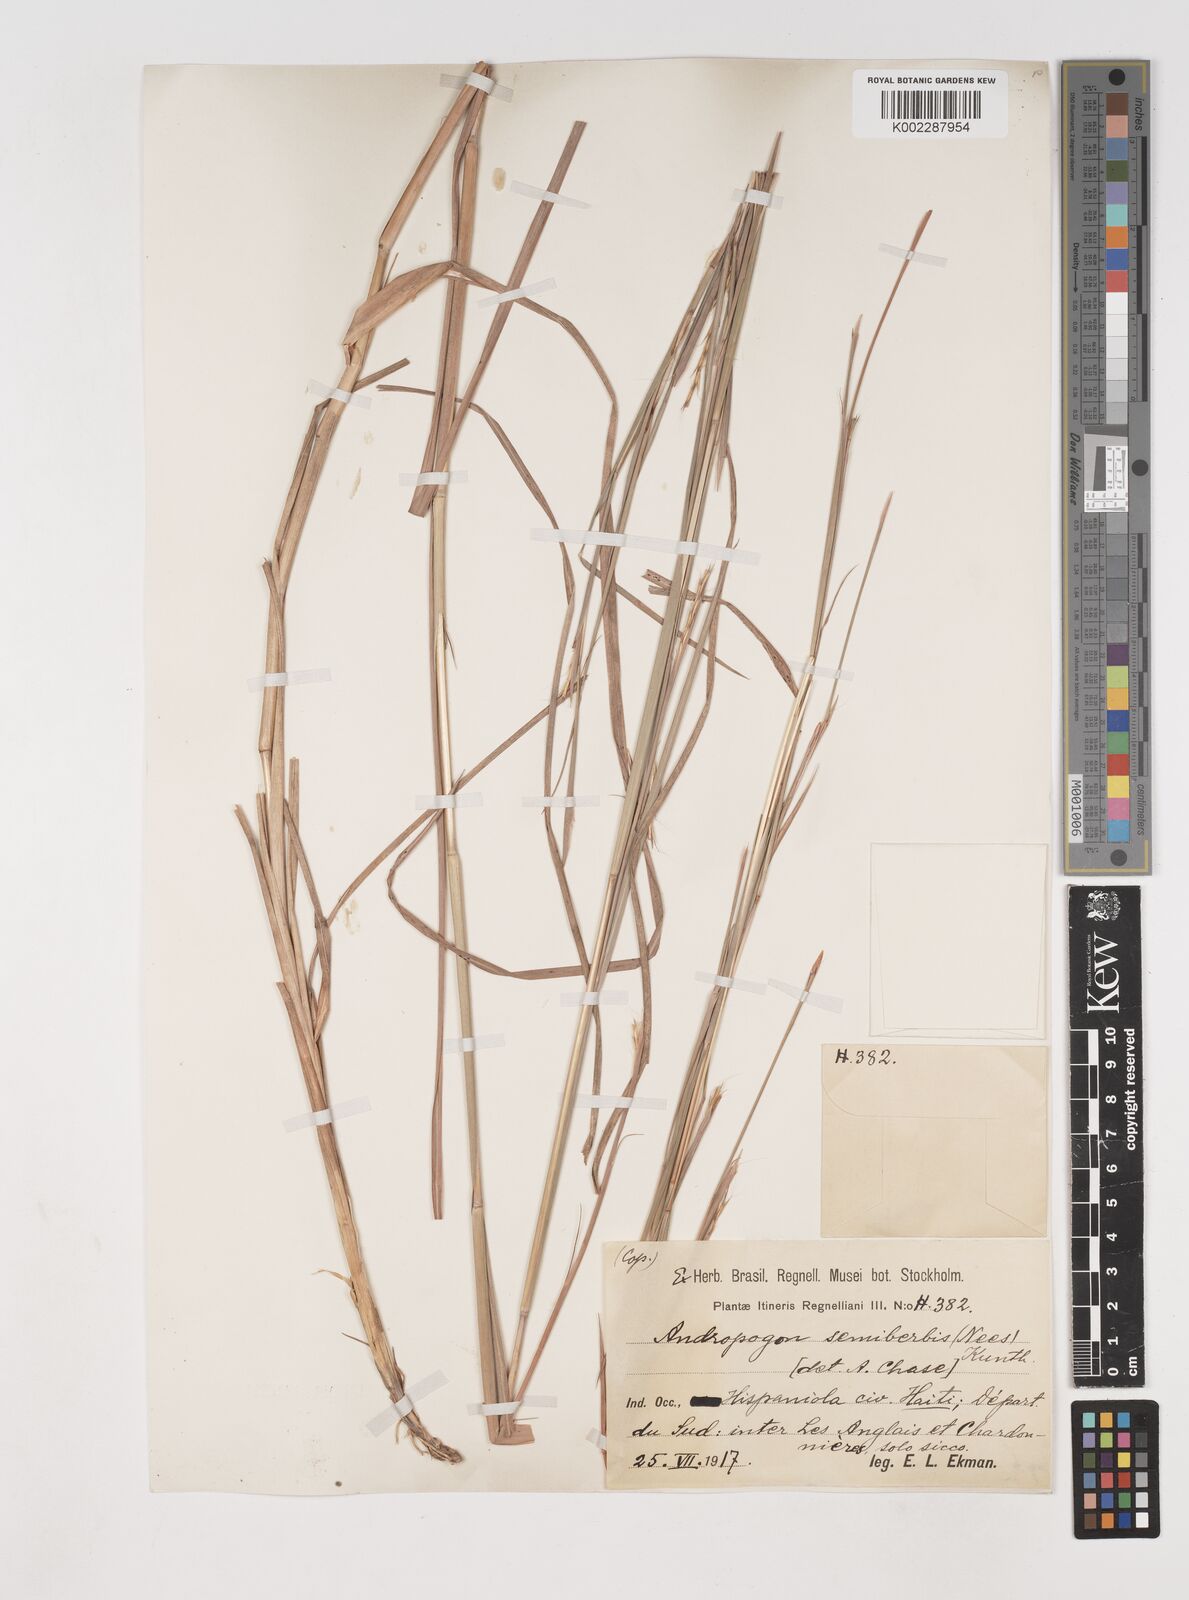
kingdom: Plantae
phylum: Tracheophyta
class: Liliopsida
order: Poales
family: Poaceae
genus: Schizachyrium
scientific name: Schizachyrium sanguineum
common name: Crimson bluestem
